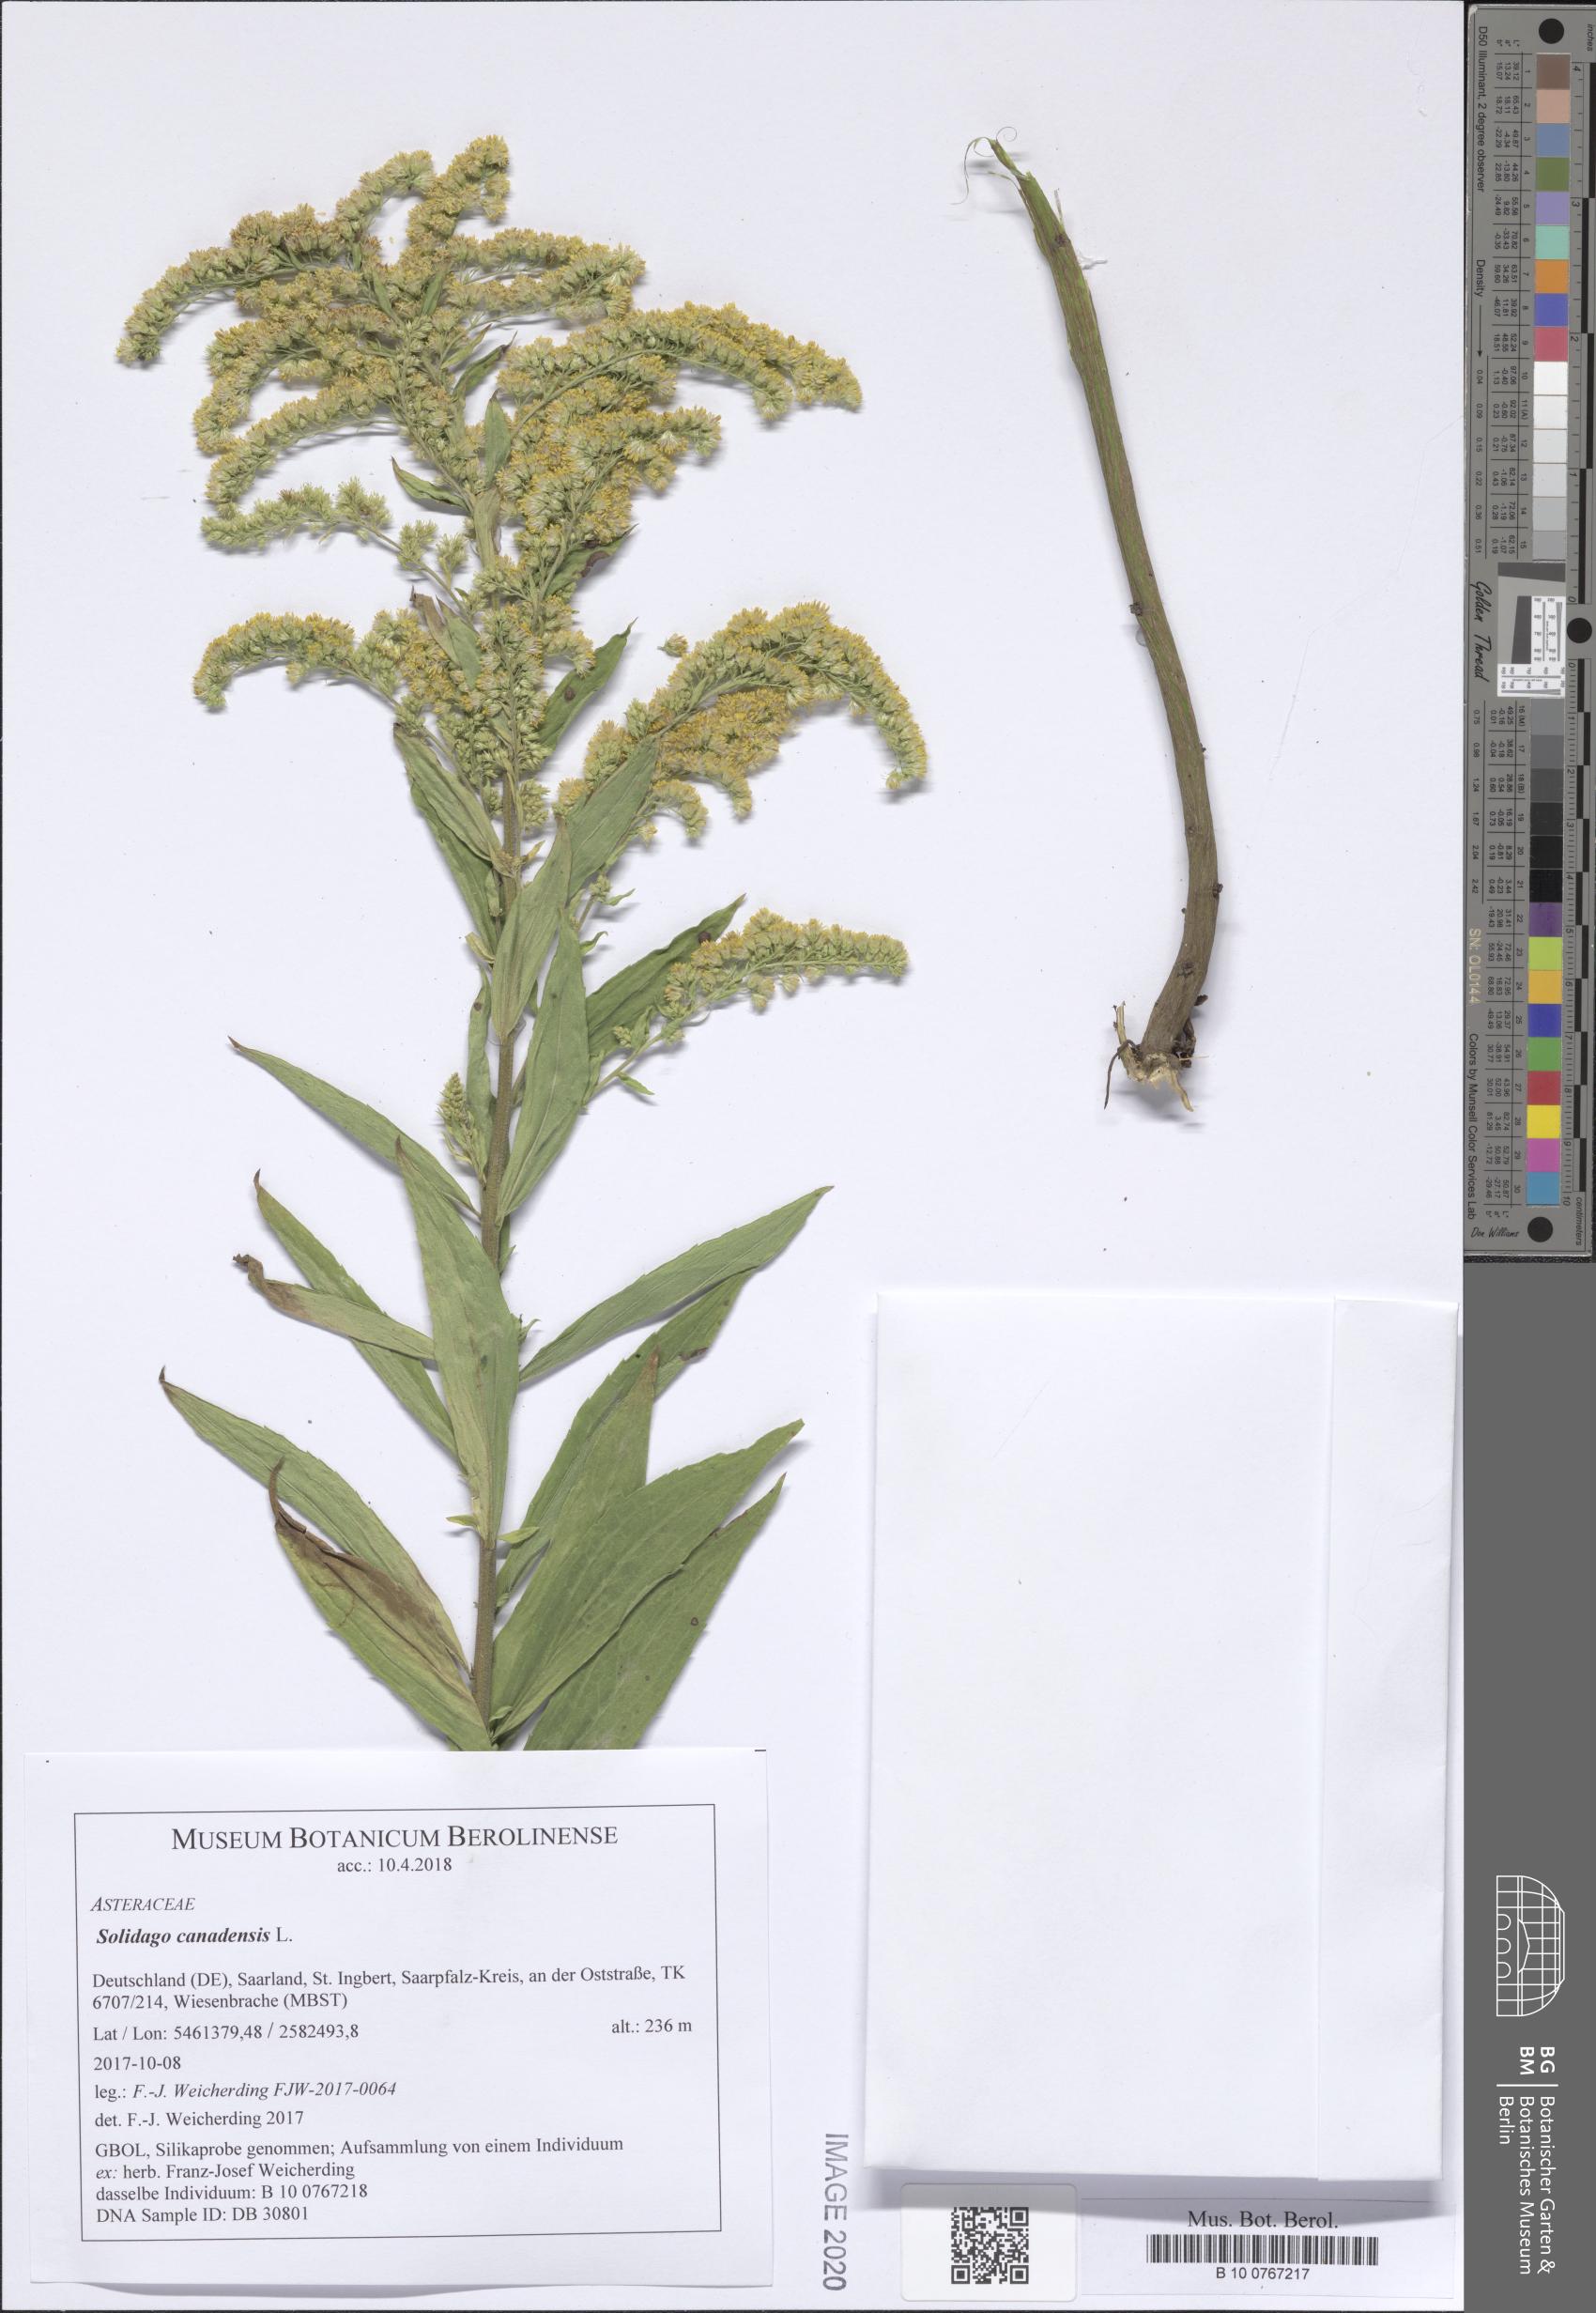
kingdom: Plantae
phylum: Tracheophyta
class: Magnoliopsida
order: Asterales
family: Asteraceae
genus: Solidago
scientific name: Solidago canadensis
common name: Canada goldenrod
